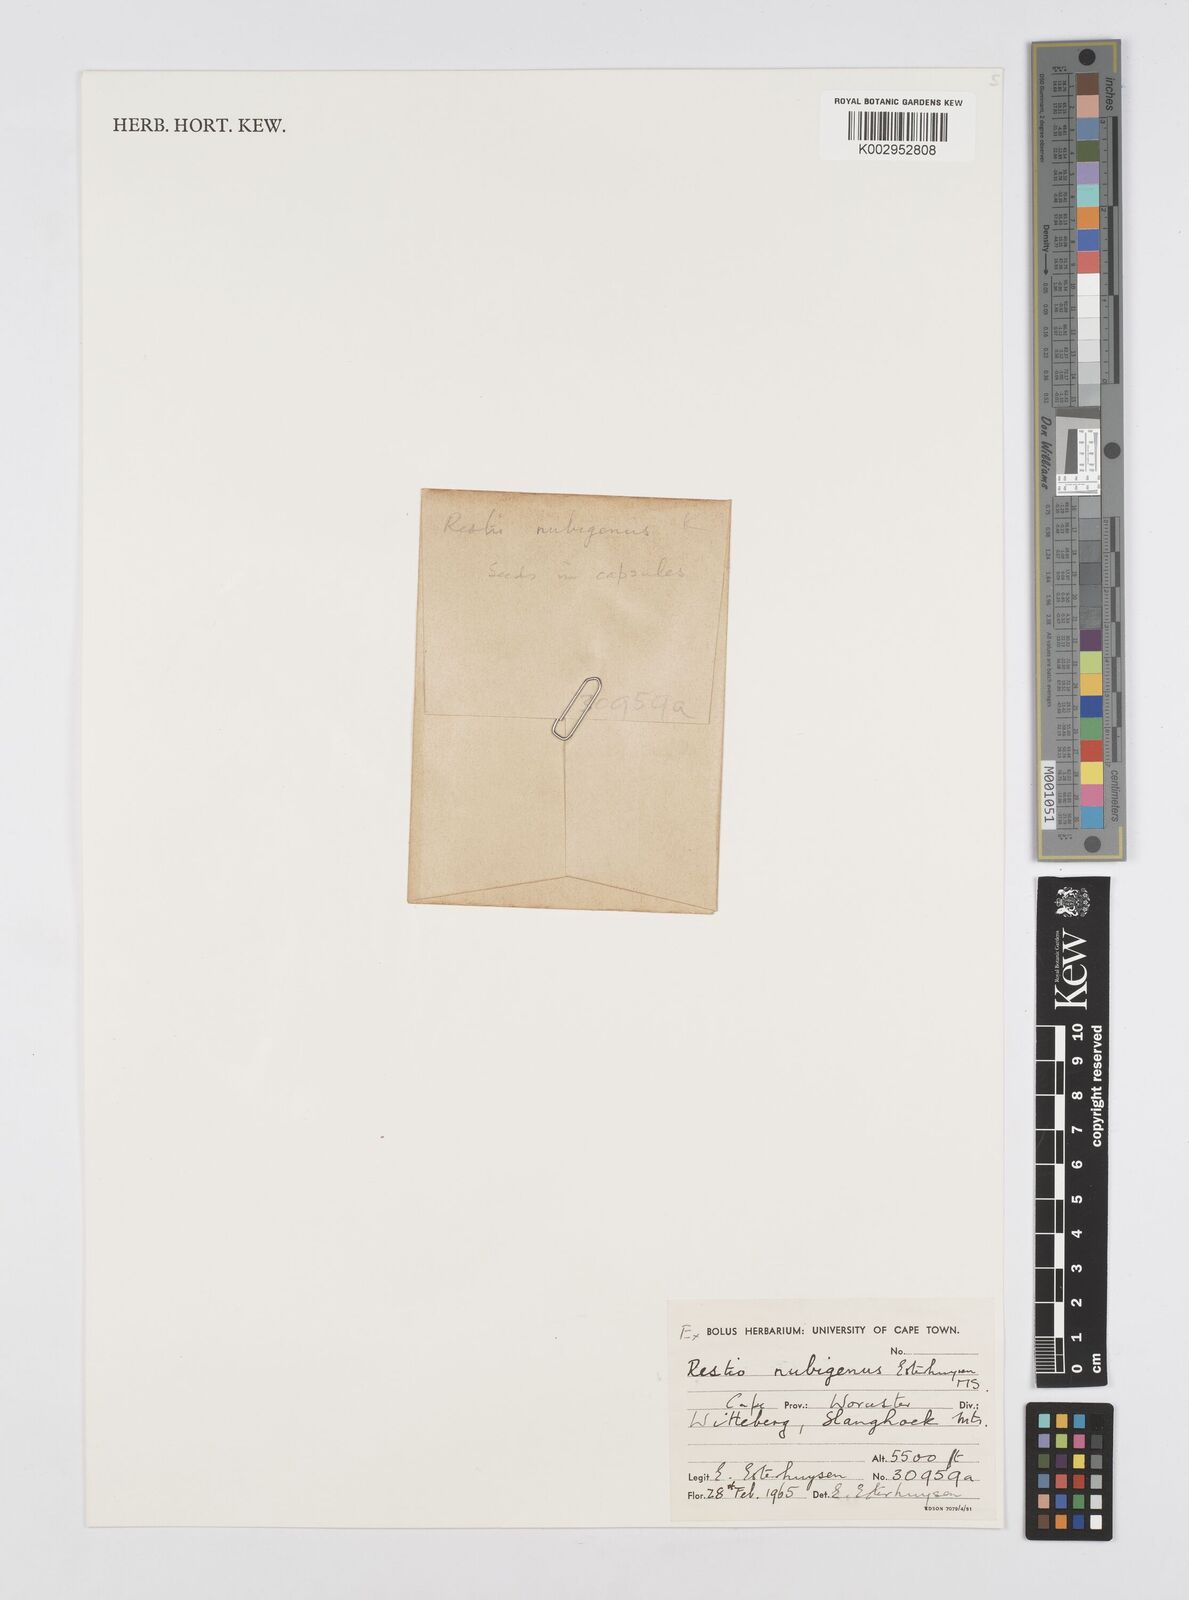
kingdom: Plantae
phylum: Tracheophyta
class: Liliopsida
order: Poales
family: Restionaceae
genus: Restio
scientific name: Restio nubigenus
